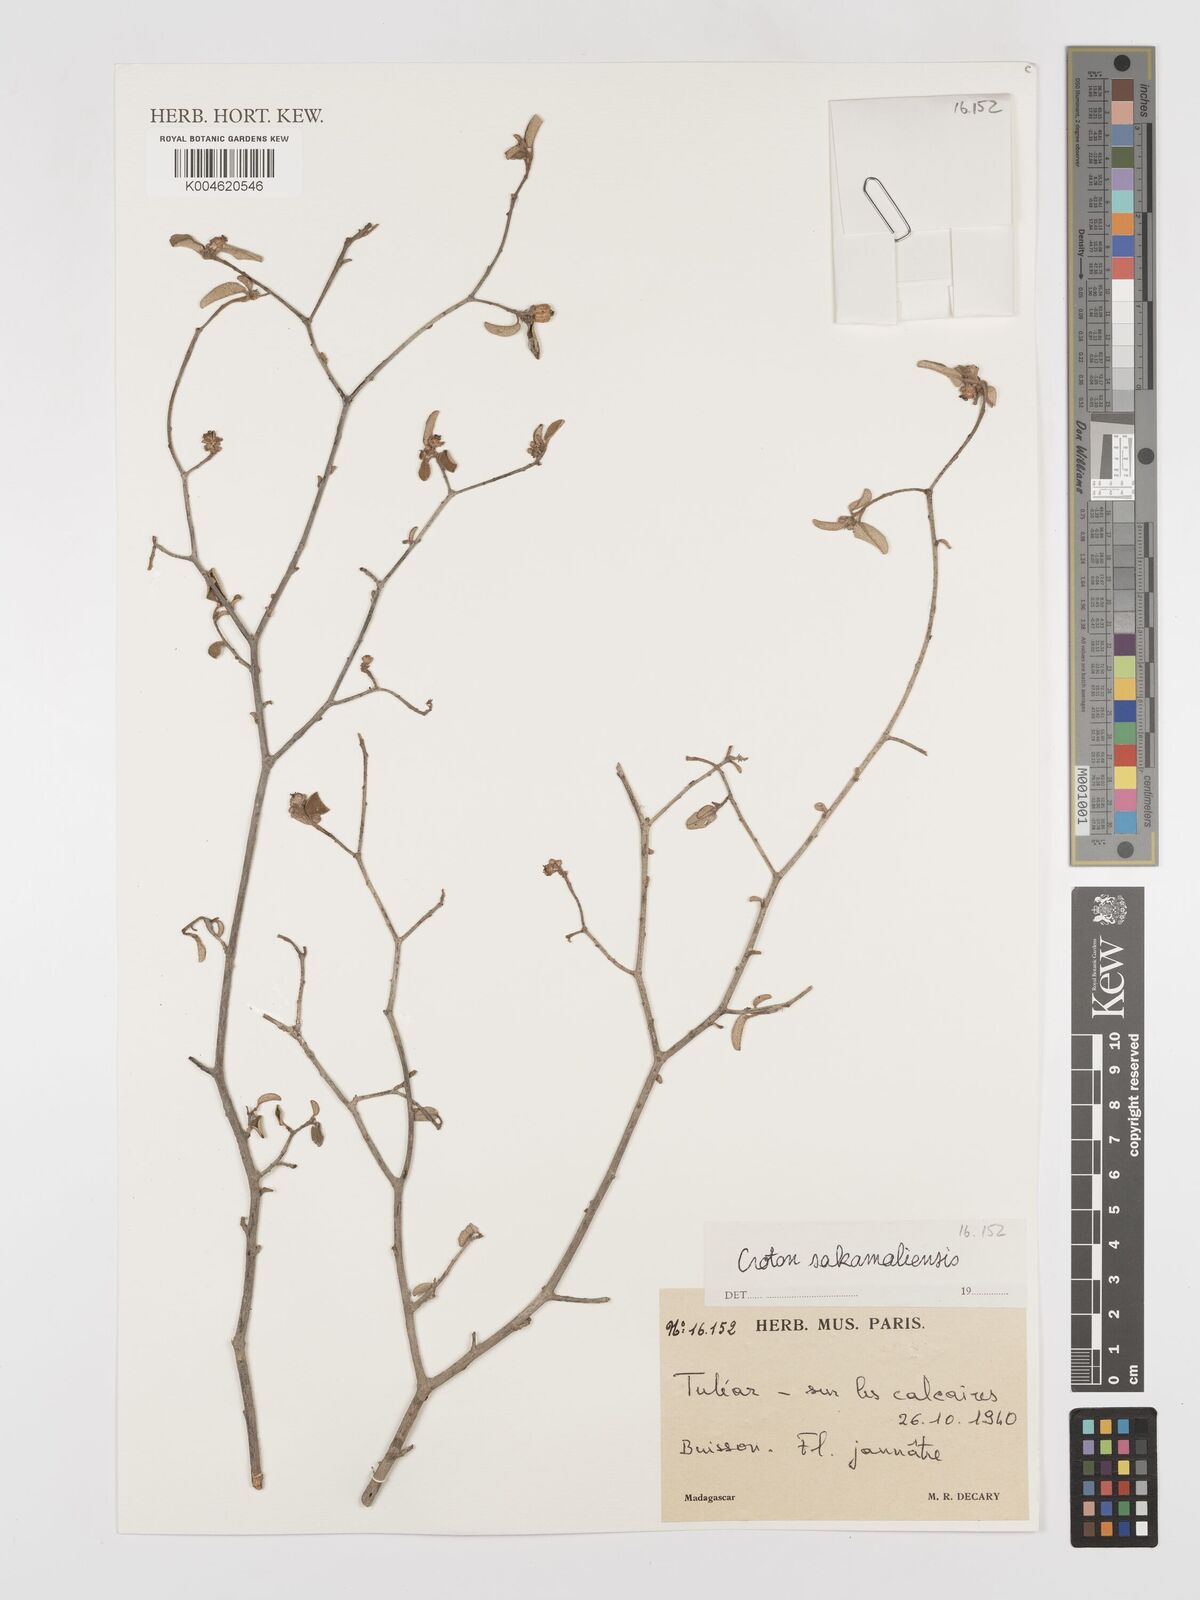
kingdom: Plantae
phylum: Tracheophyta
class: Magnoliopsida
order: Malpighiales
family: Euphorbiaceae
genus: Croton
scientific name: Croton sakamaliensis
